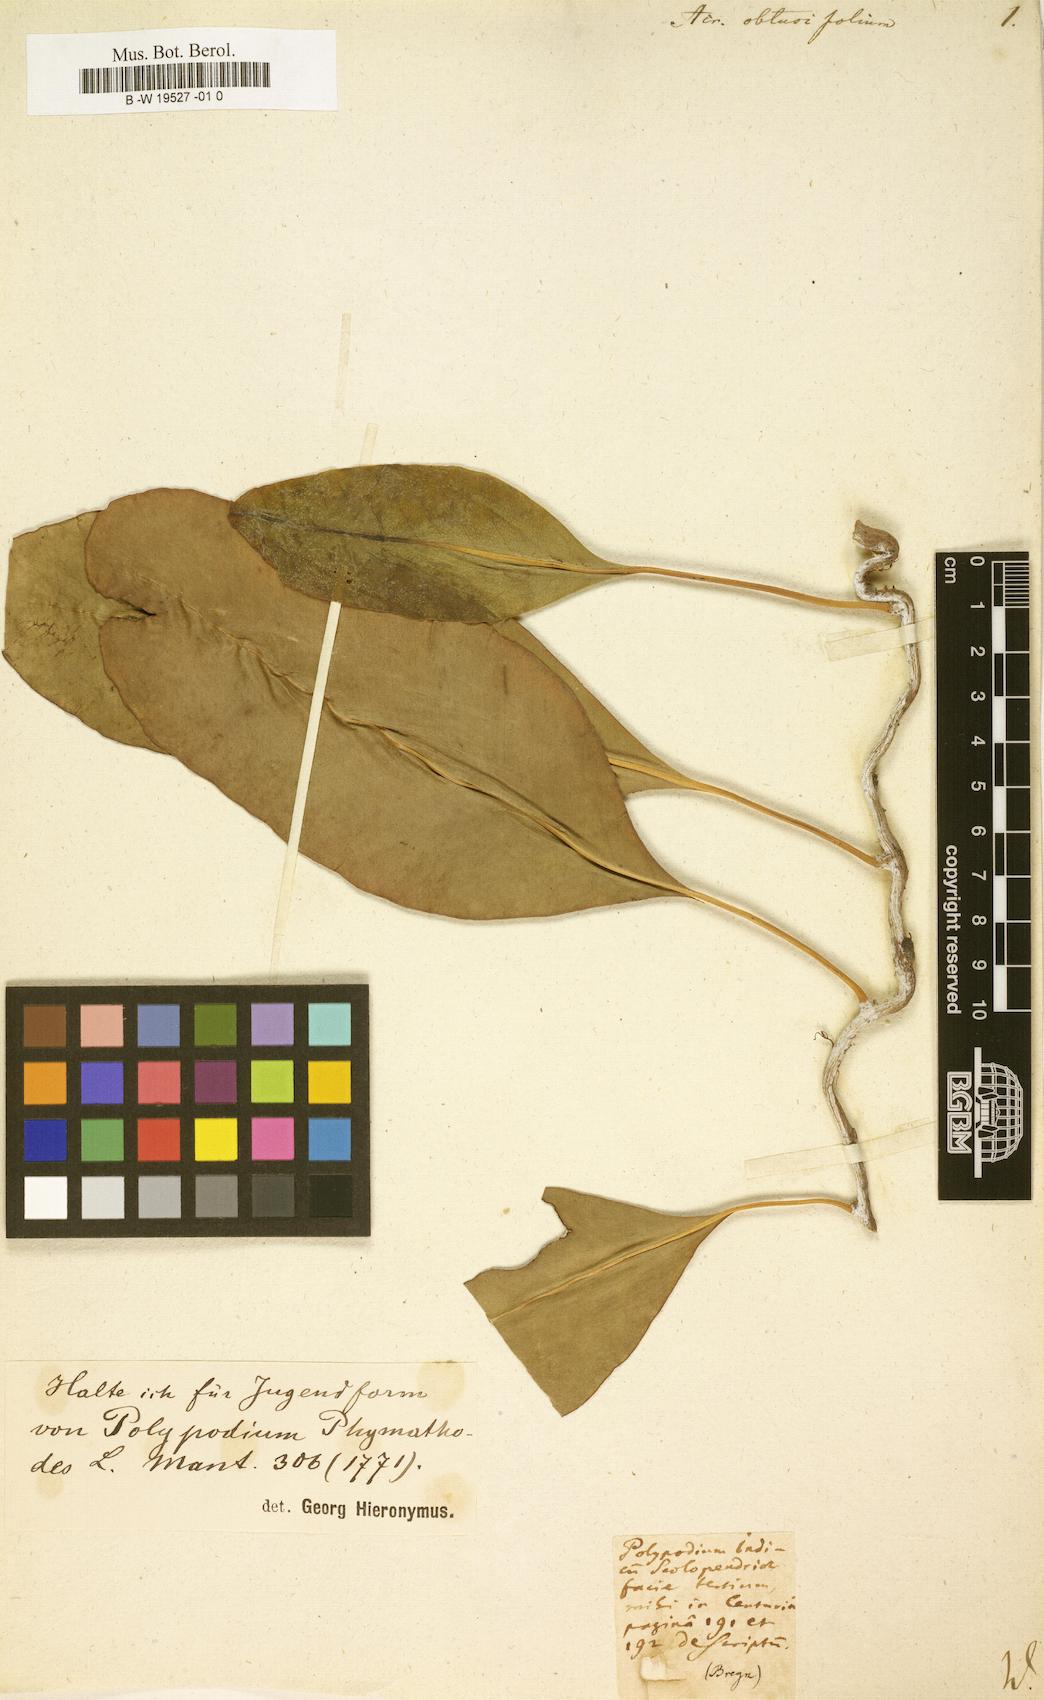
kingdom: Plantae
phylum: Tracheophyta
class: Polypodiopsida
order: Polypodiales
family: Polypodiaceae
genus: Microsorum
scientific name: Microsorum scolopendria
